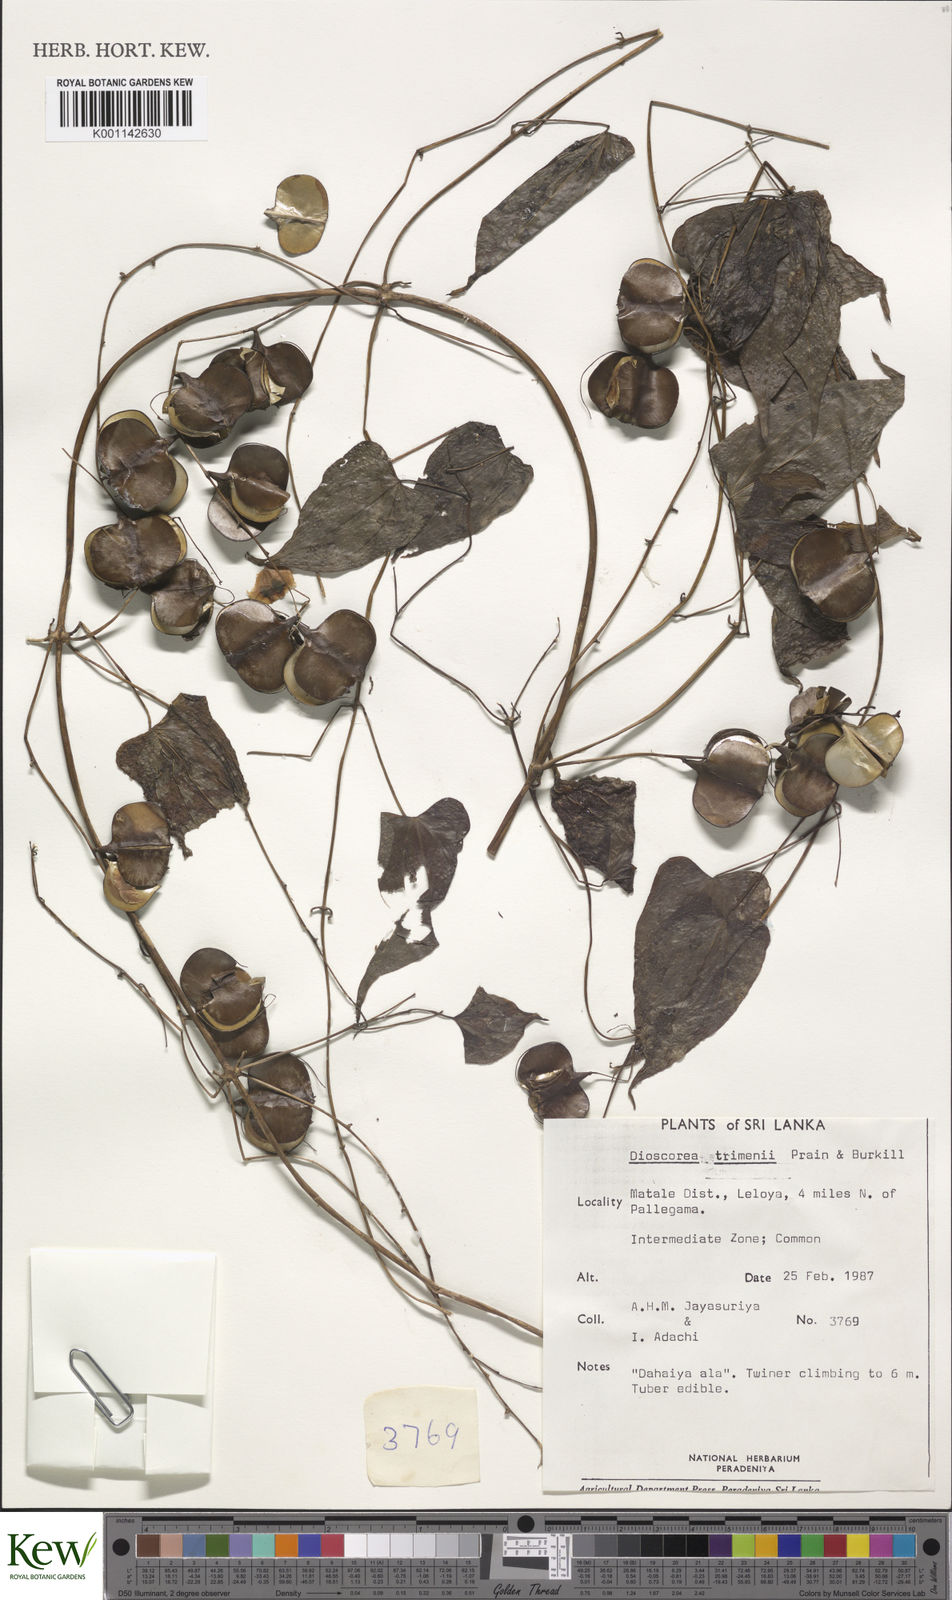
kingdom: Plantae
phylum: Tracheophyta
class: Liliopsida
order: Dioscoreales
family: Dioscoreaceae
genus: Dioscorea
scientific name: Dioscorea trimenii
